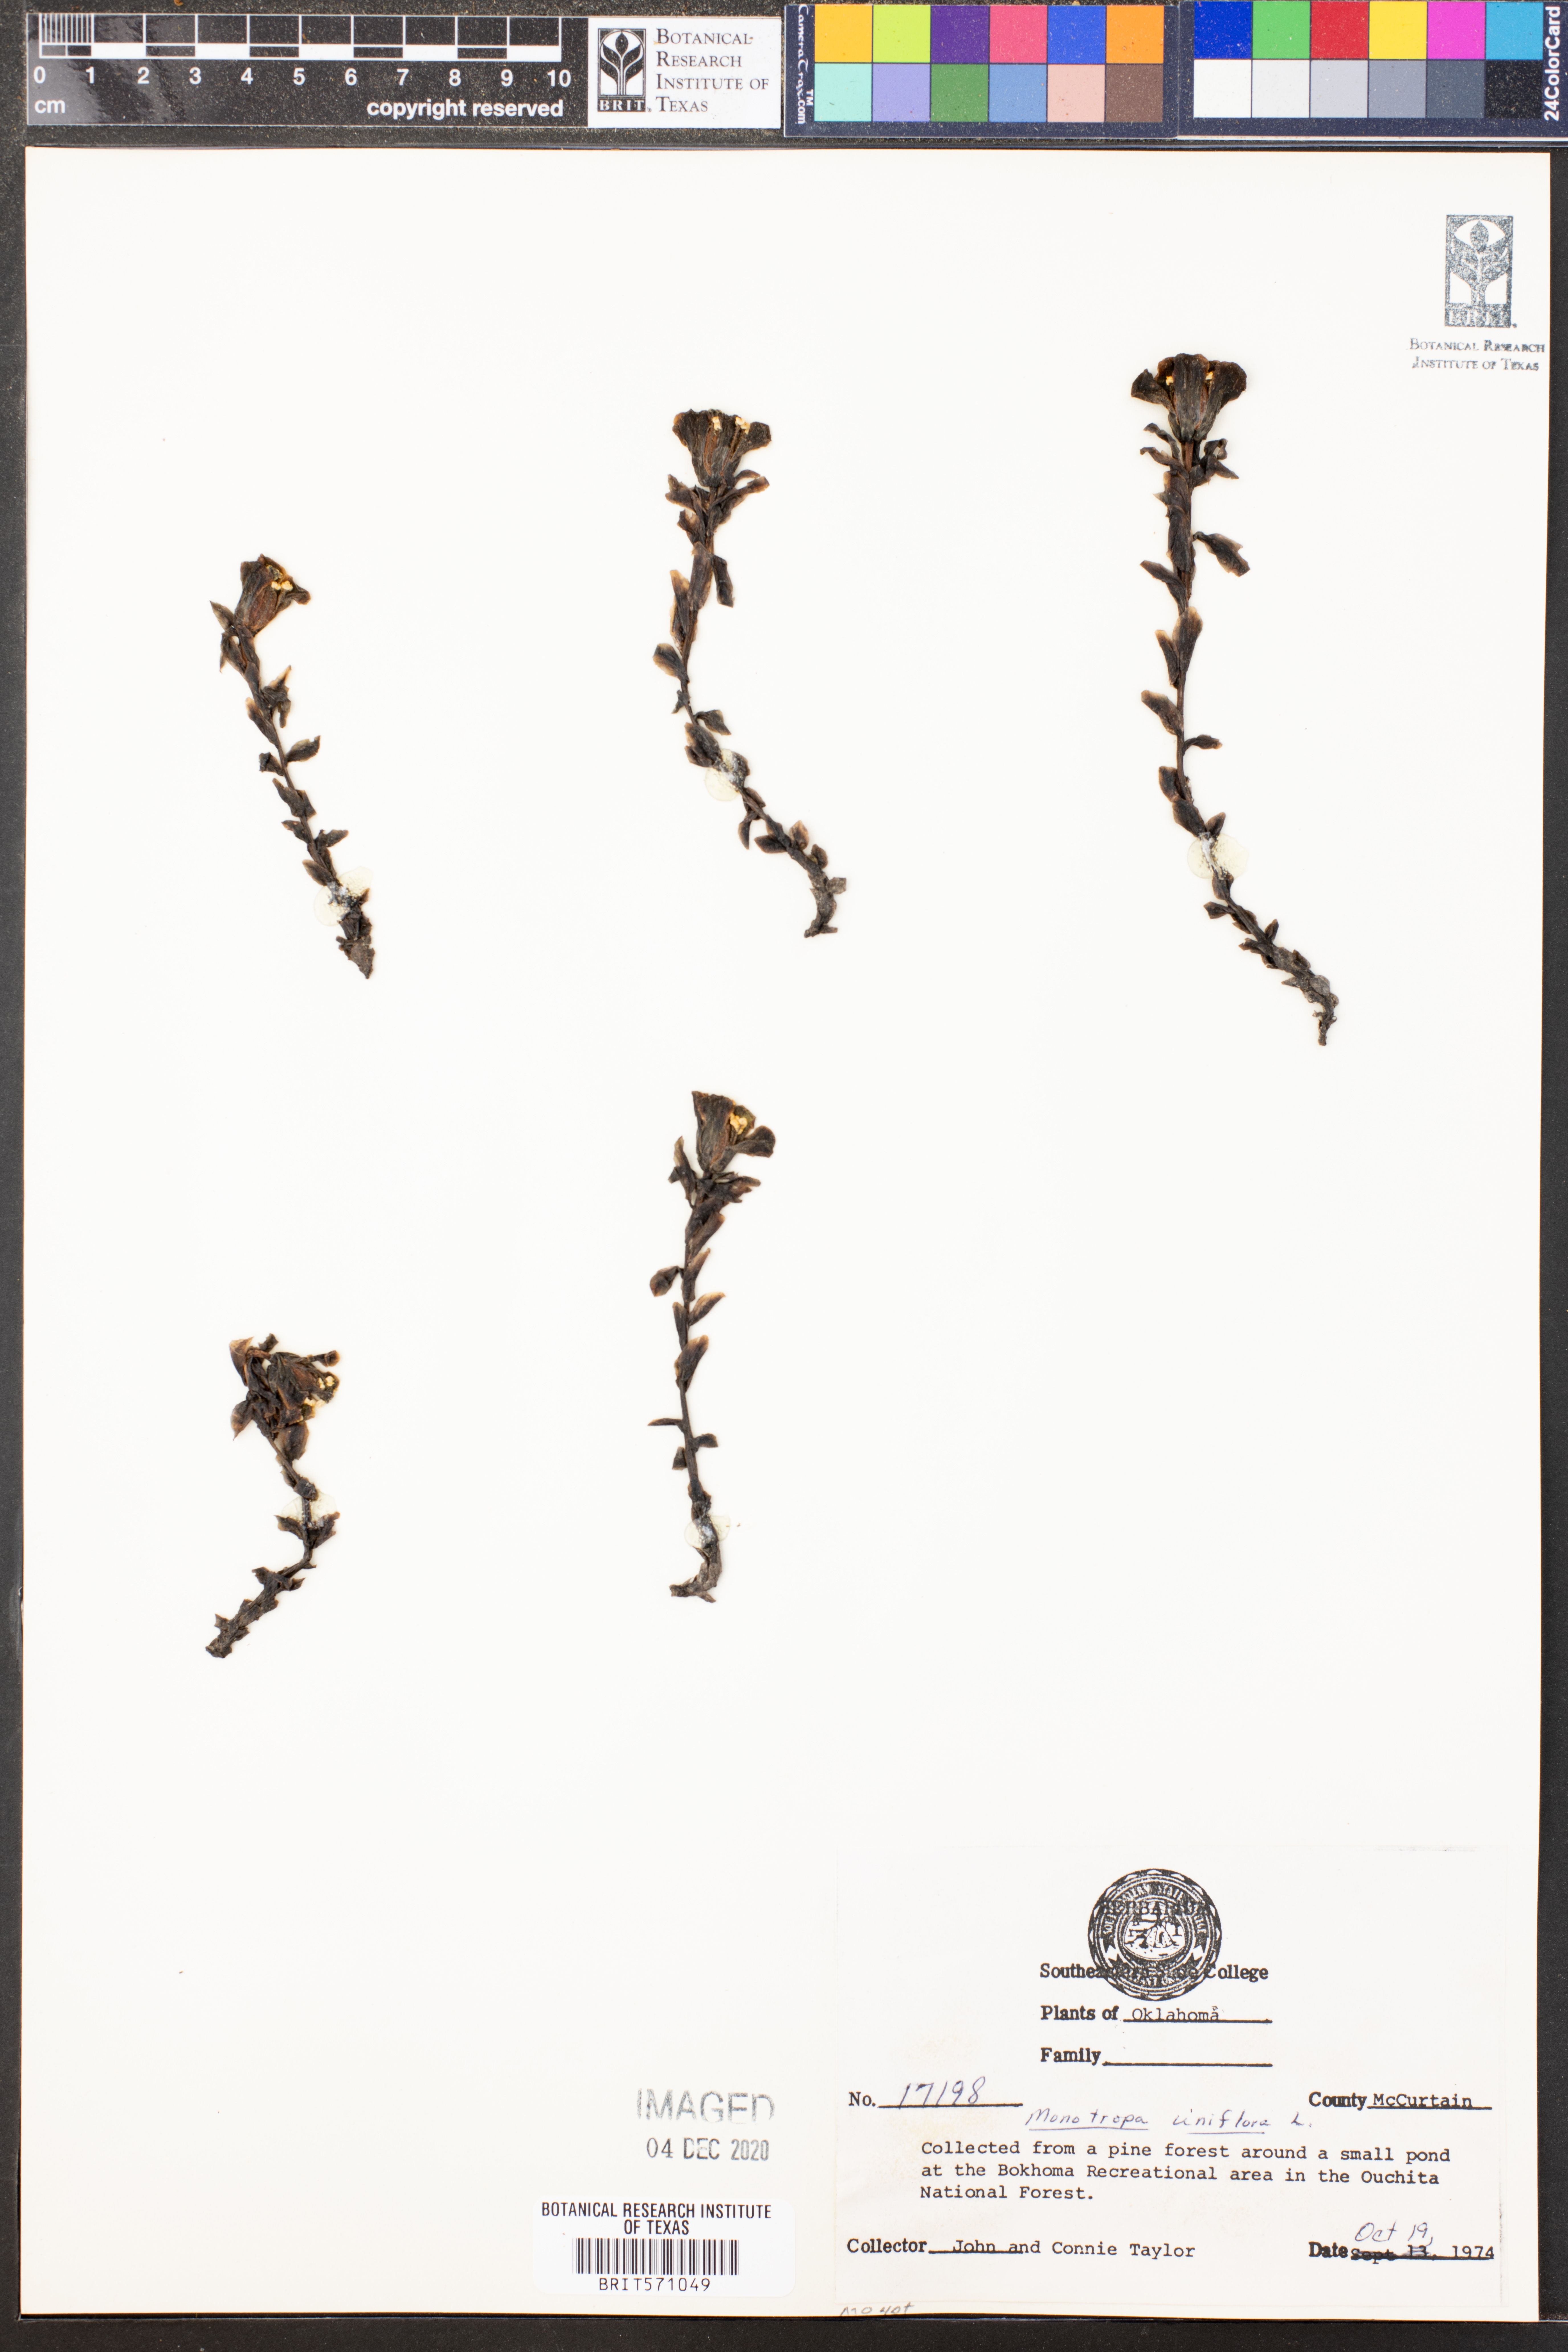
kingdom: Plantae
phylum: Tracheophyta
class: Magnoliopsida
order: Ericales
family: Ericaceae
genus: Monotropa
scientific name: Monotropa uniflora
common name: Convulsion root
